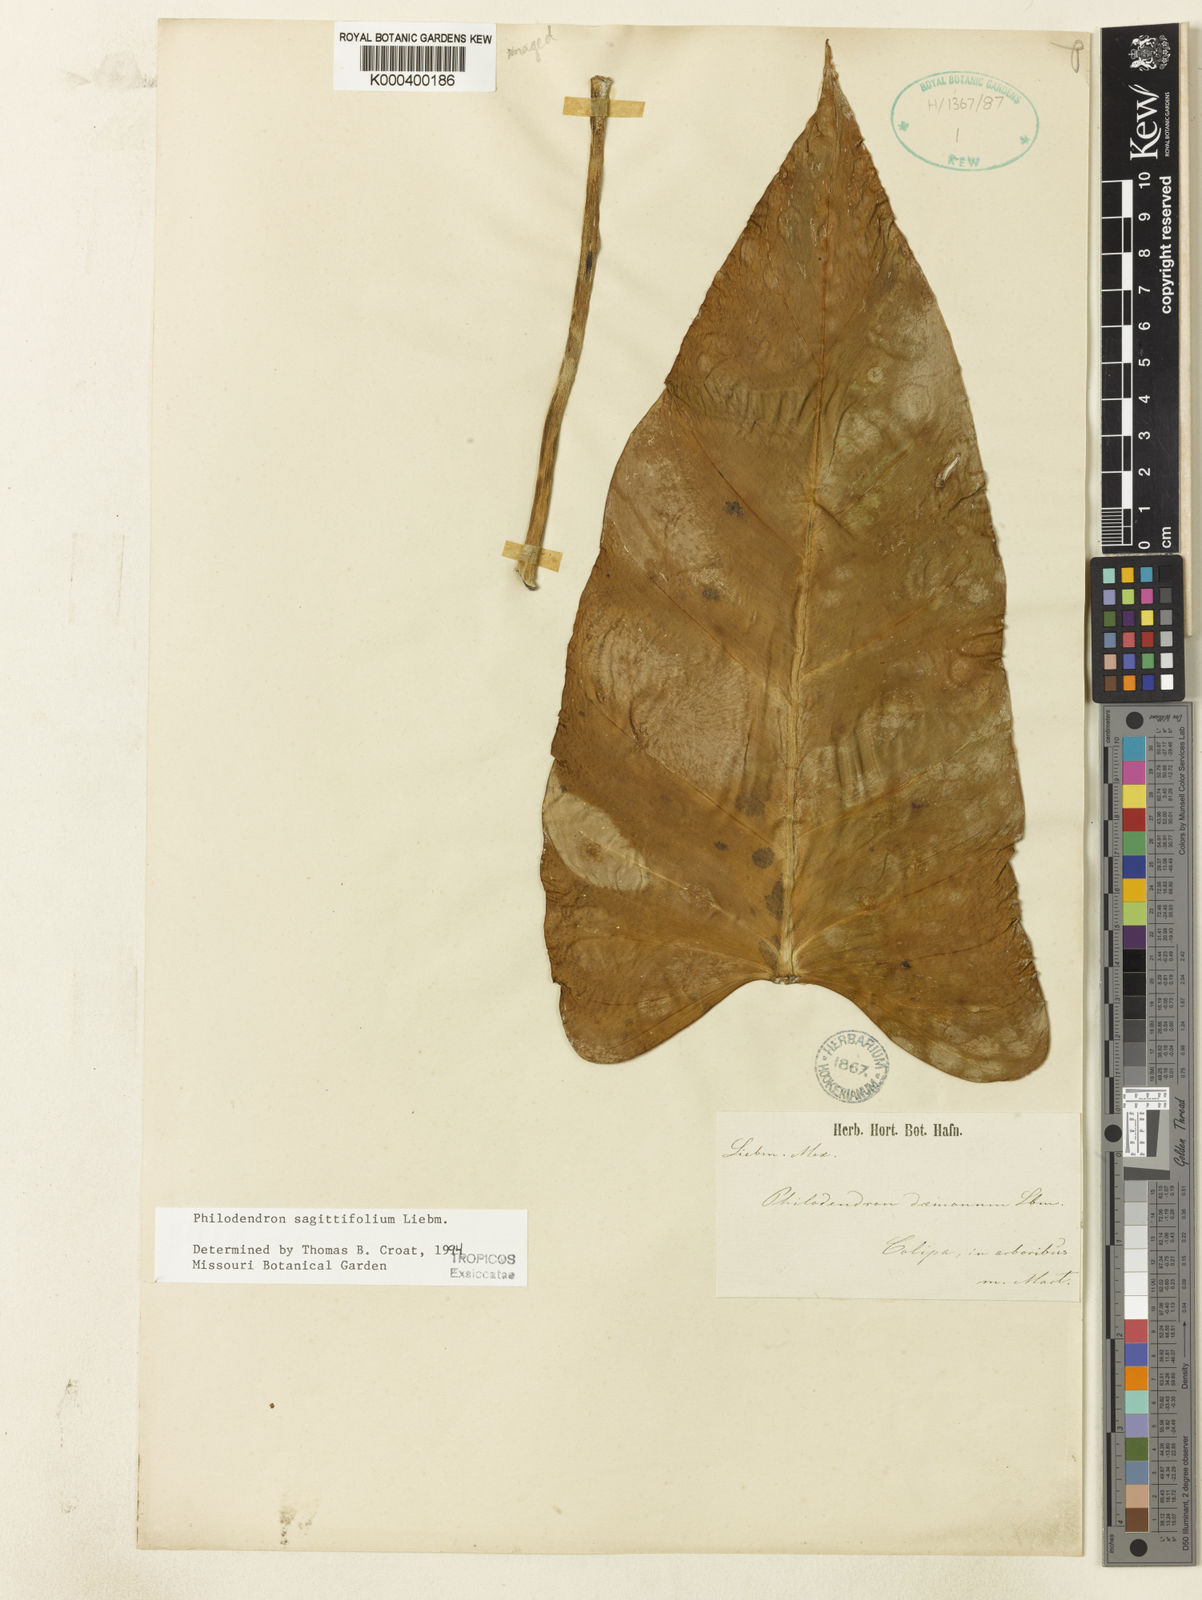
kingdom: Plantae
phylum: Tracheophyta
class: Liliopsida
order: Alismatales
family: Araceae
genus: Philodendron
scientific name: Philodendron sagittifolium
